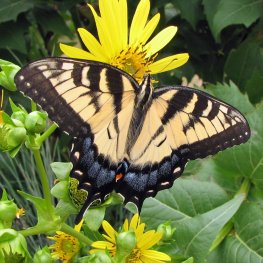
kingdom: Animalia
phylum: Arthropoda
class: Insecta
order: Lepidoptera
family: Papilionidae
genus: Pterourus
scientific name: Pterourus glaucus
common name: Eastern Tiger Swallowtail
